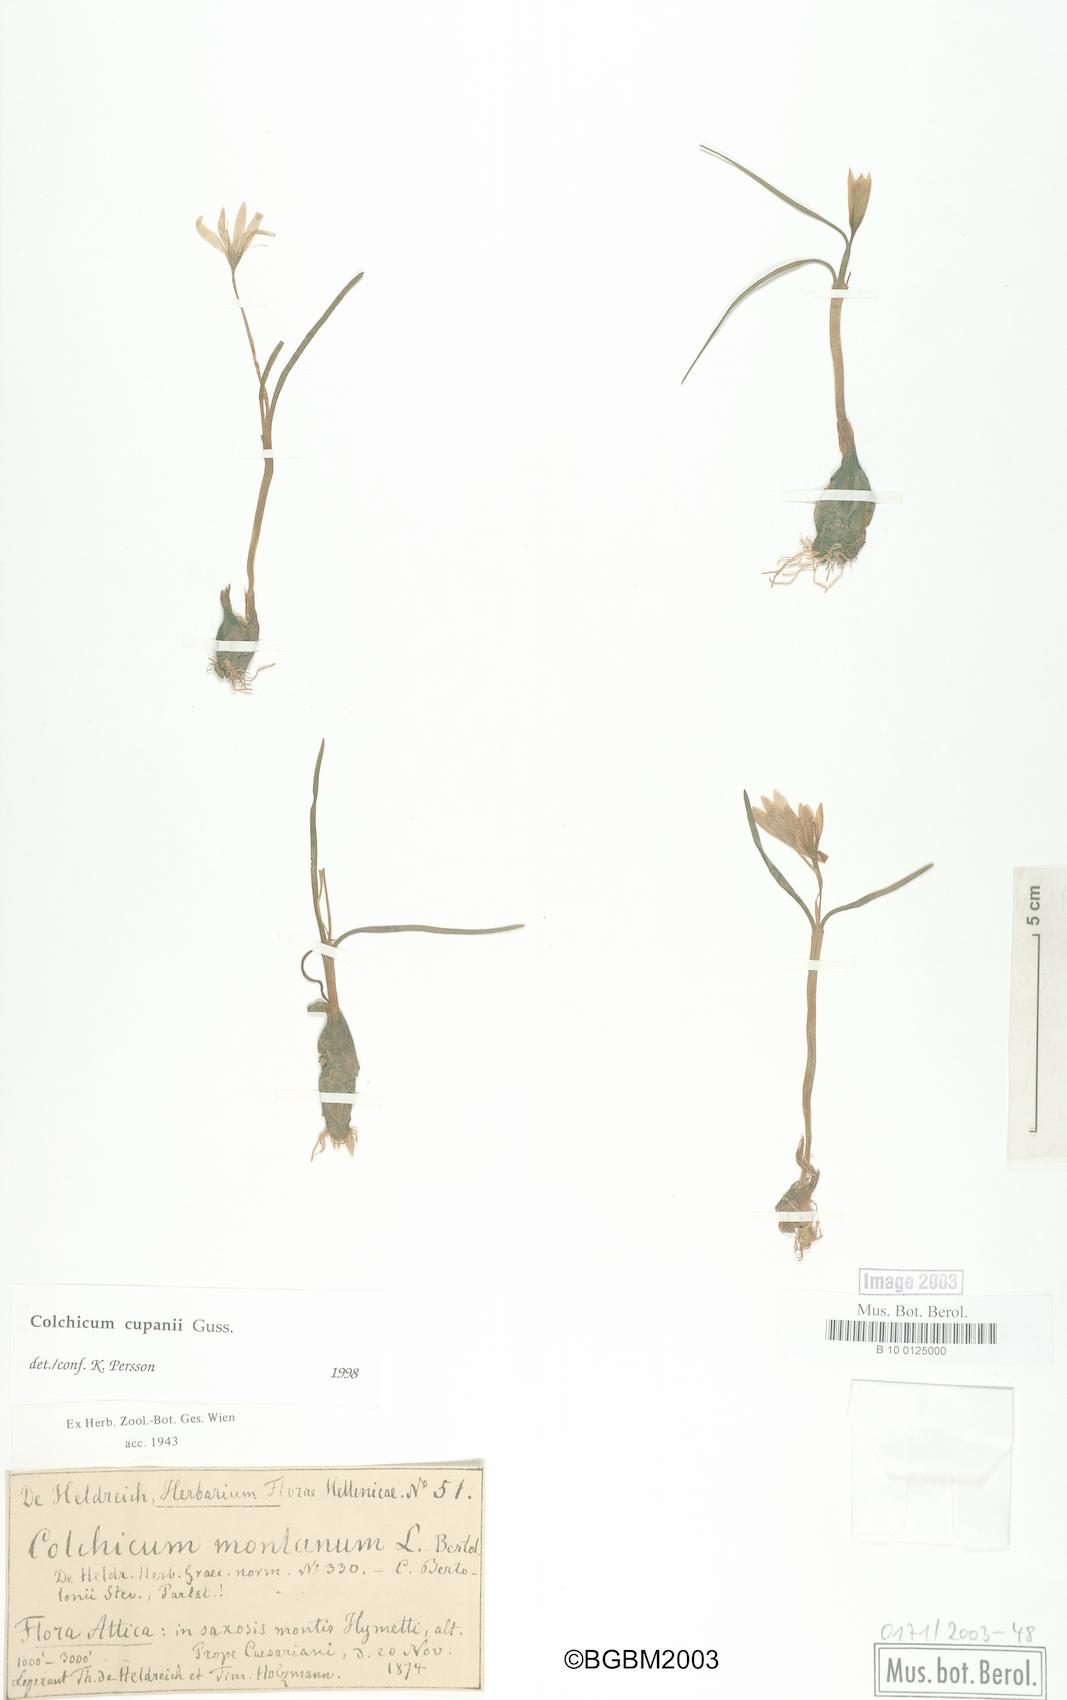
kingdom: Plantae
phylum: Tracheophyta
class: Liliopsida
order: Liliales
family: Colchicaceae
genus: Colchicum
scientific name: Colchicum cupanii
